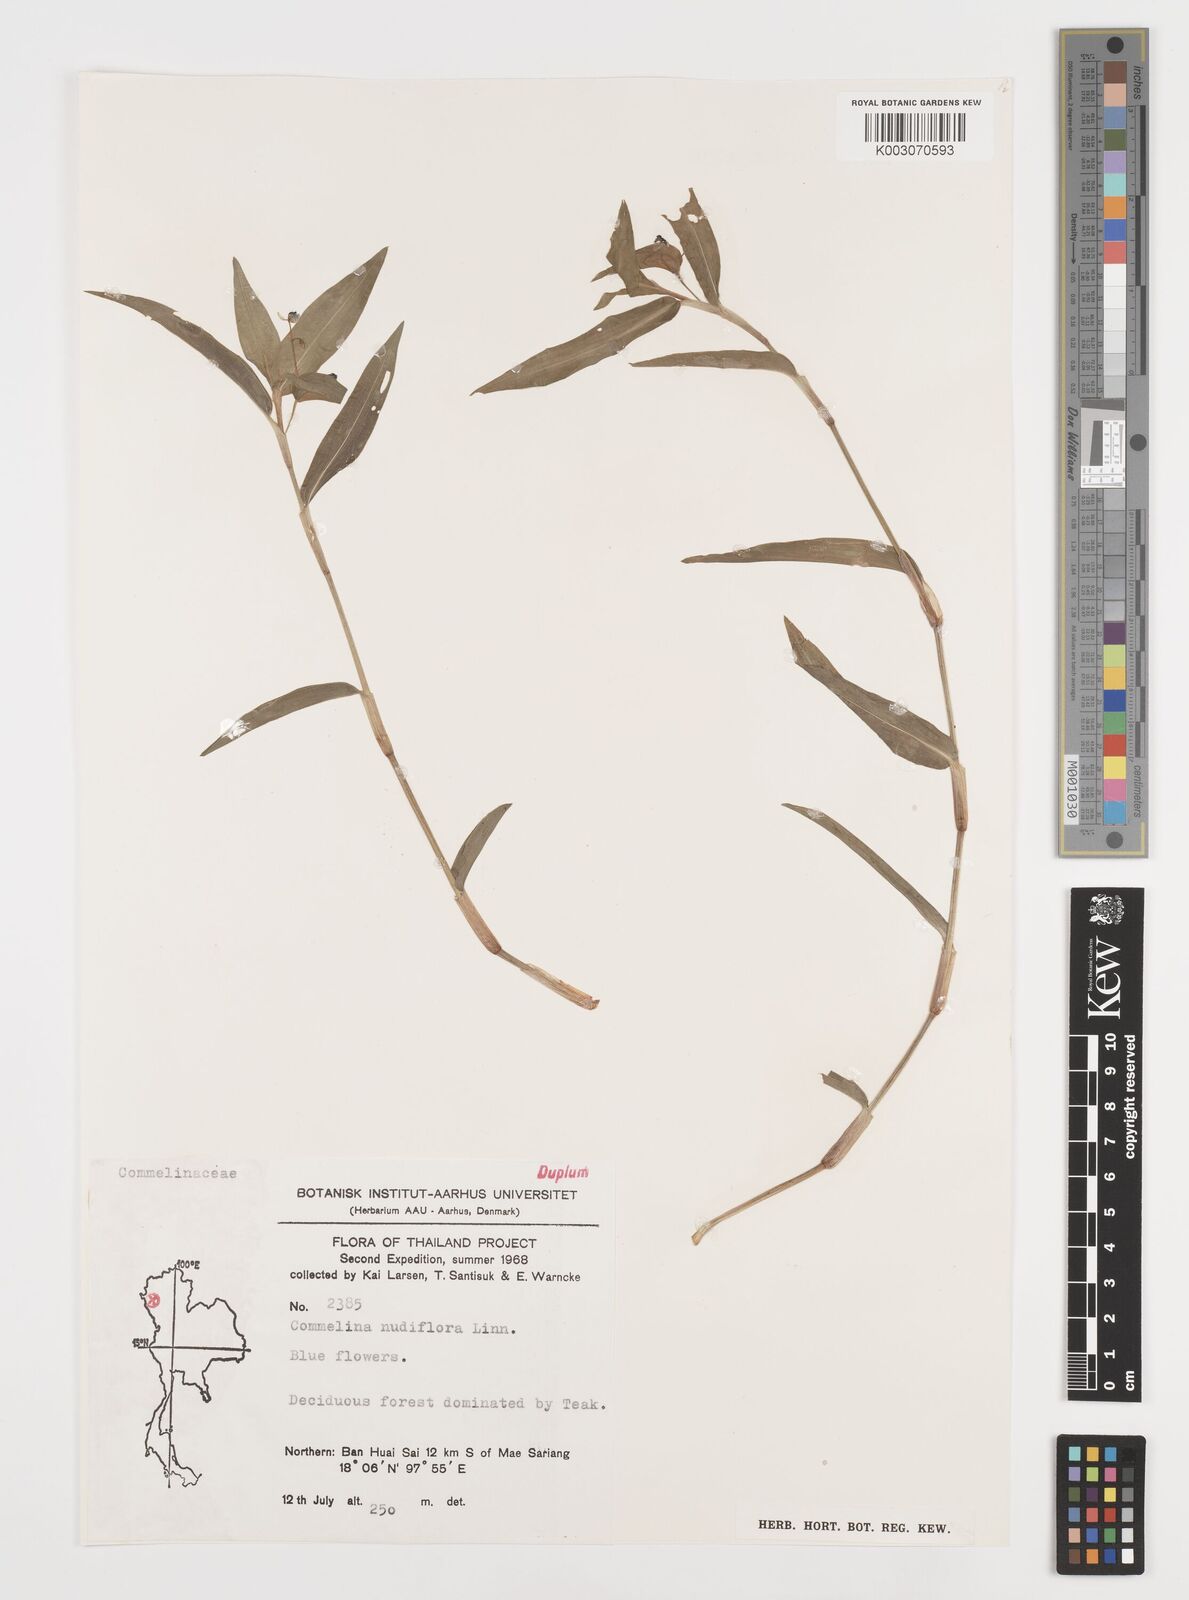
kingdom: Plantae
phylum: Tracheophyta
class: Liliopsida
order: Commelinales
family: Commelinaceae
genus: Commelina
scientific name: Commelina clavata
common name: Willow leaved dayflower
